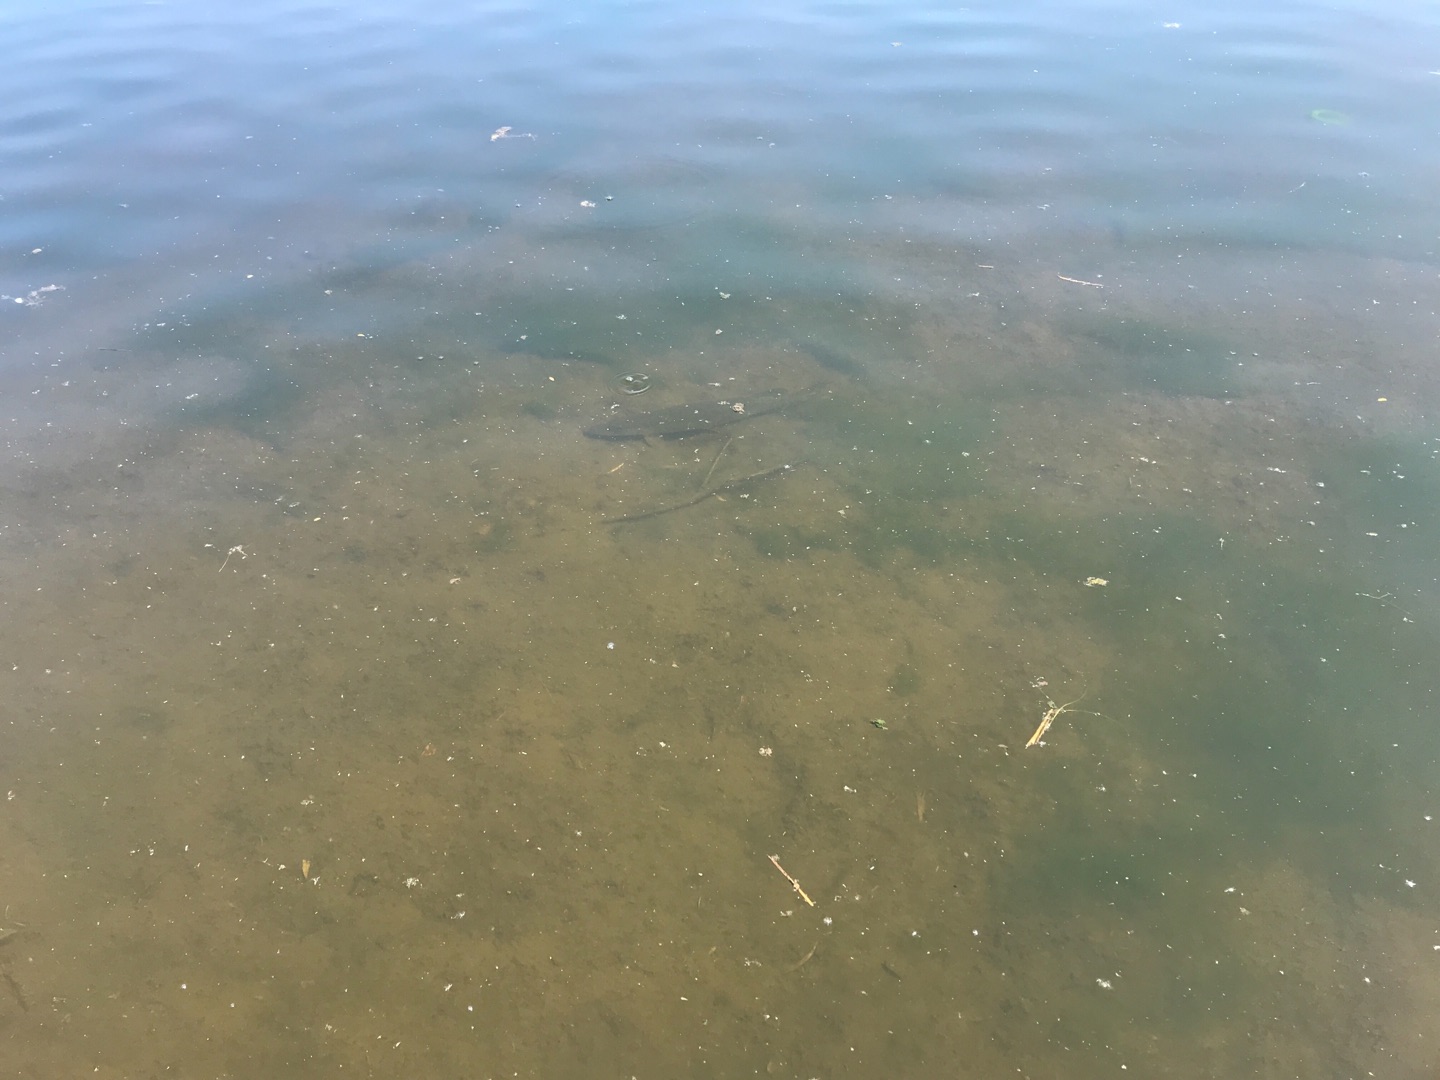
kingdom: Animalia
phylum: Chordata
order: Esociformes
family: Esocidae
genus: Esox
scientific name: Esox lucius
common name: Gedde
